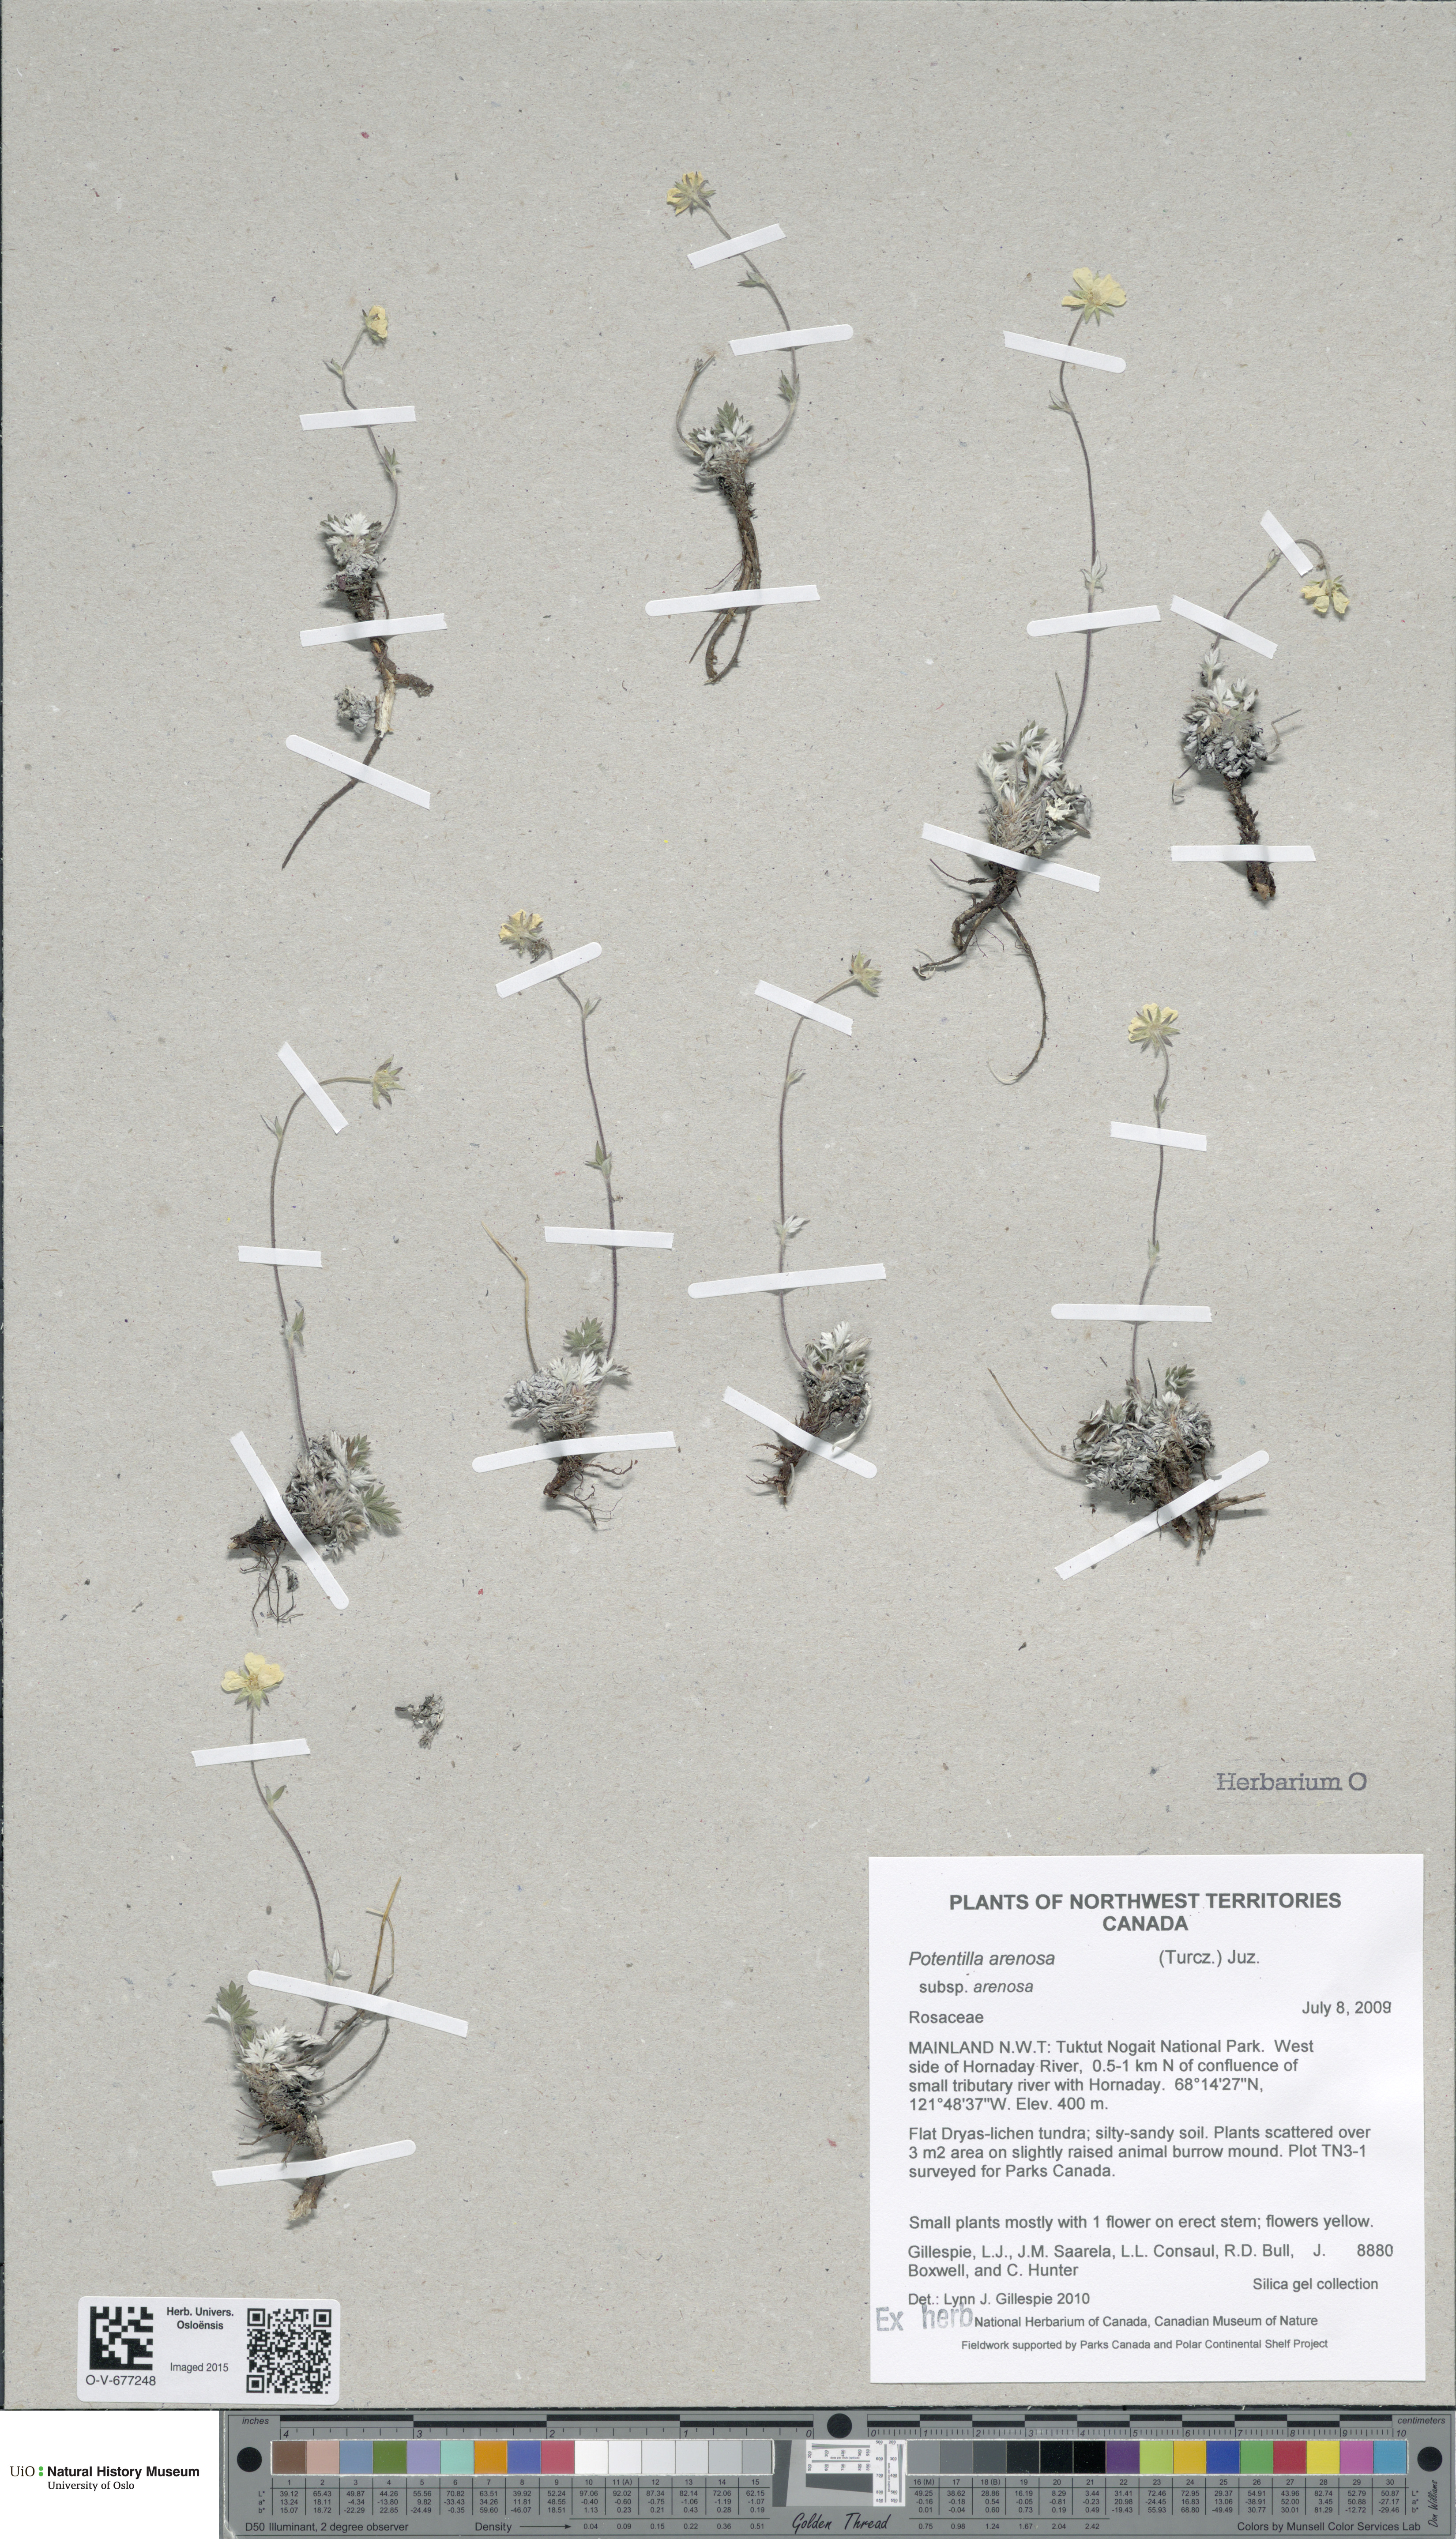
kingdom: Plantae
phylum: Tracheophyta
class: Magnoliopsida
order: Rosales
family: Rosaceae
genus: Potentilla
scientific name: Potentilla arenosa
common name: Bluff cinquefoil
